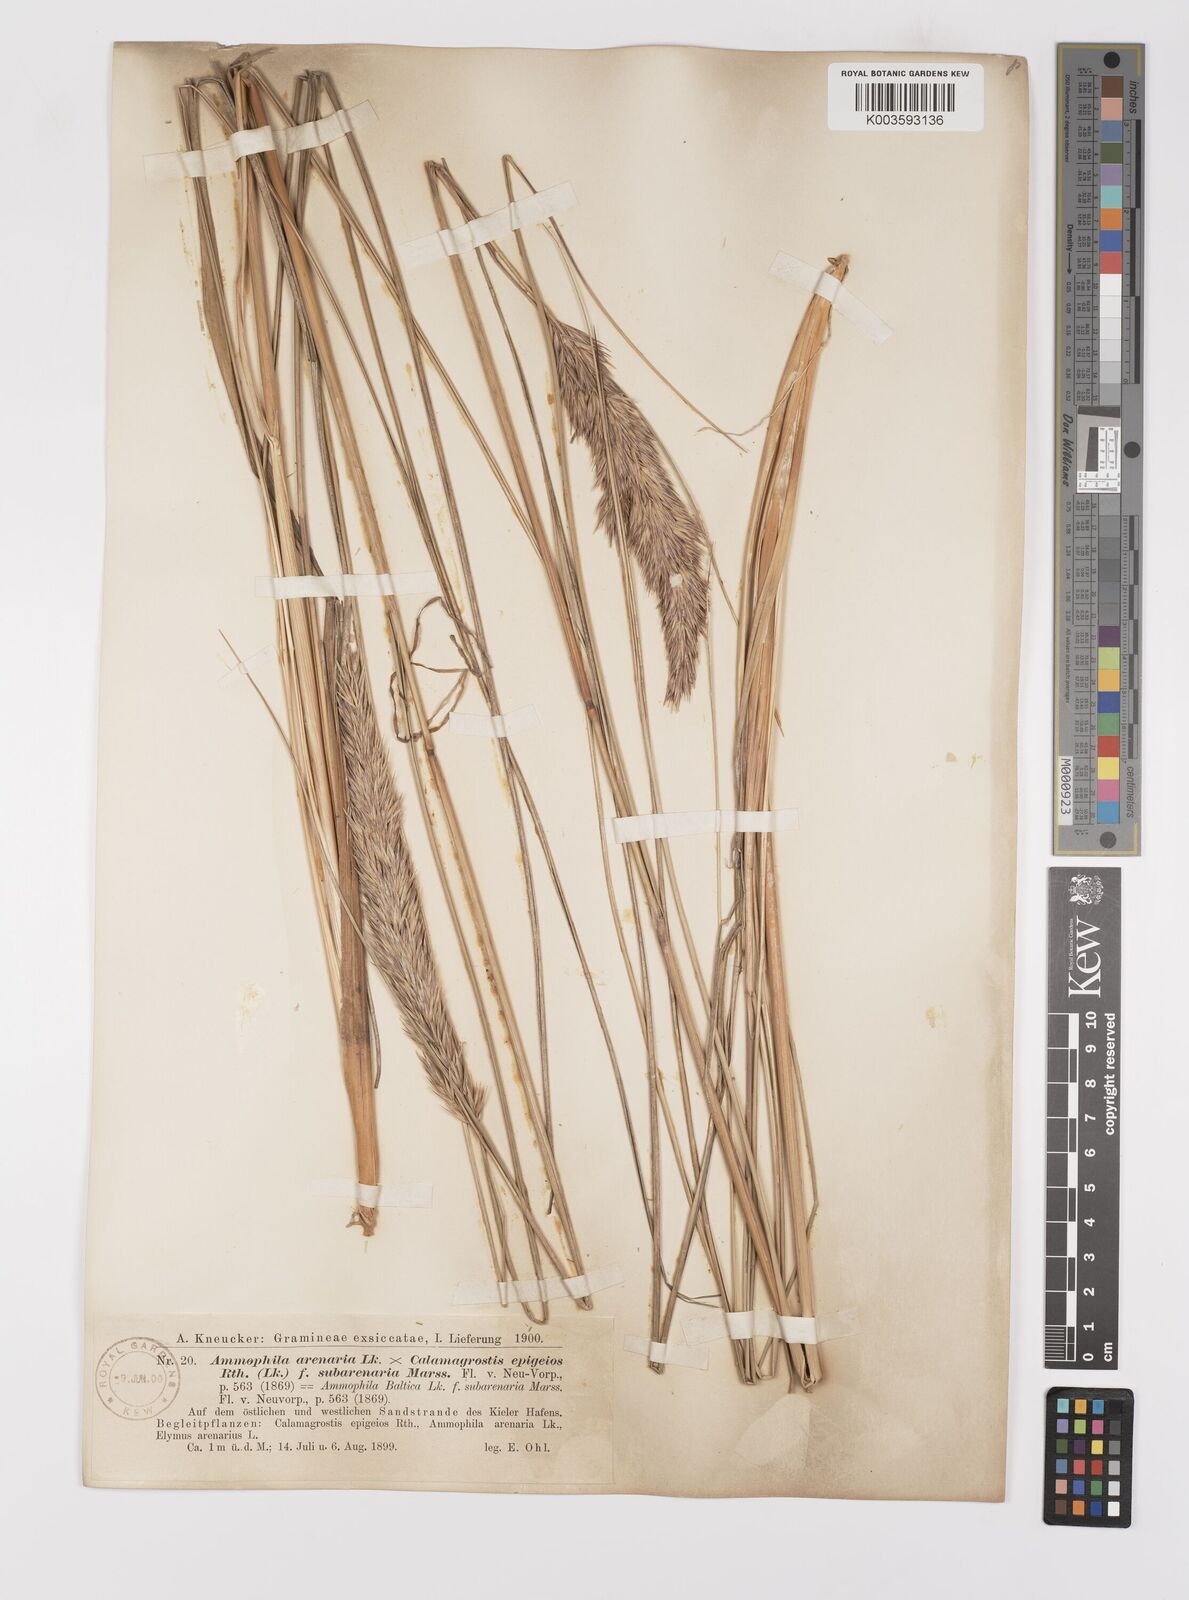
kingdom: Plantae
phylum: Tracheophyta
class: Liliopsida
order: Poales
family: Poaceae
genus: Calamagrostis
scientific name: Calamagrostis baltica
